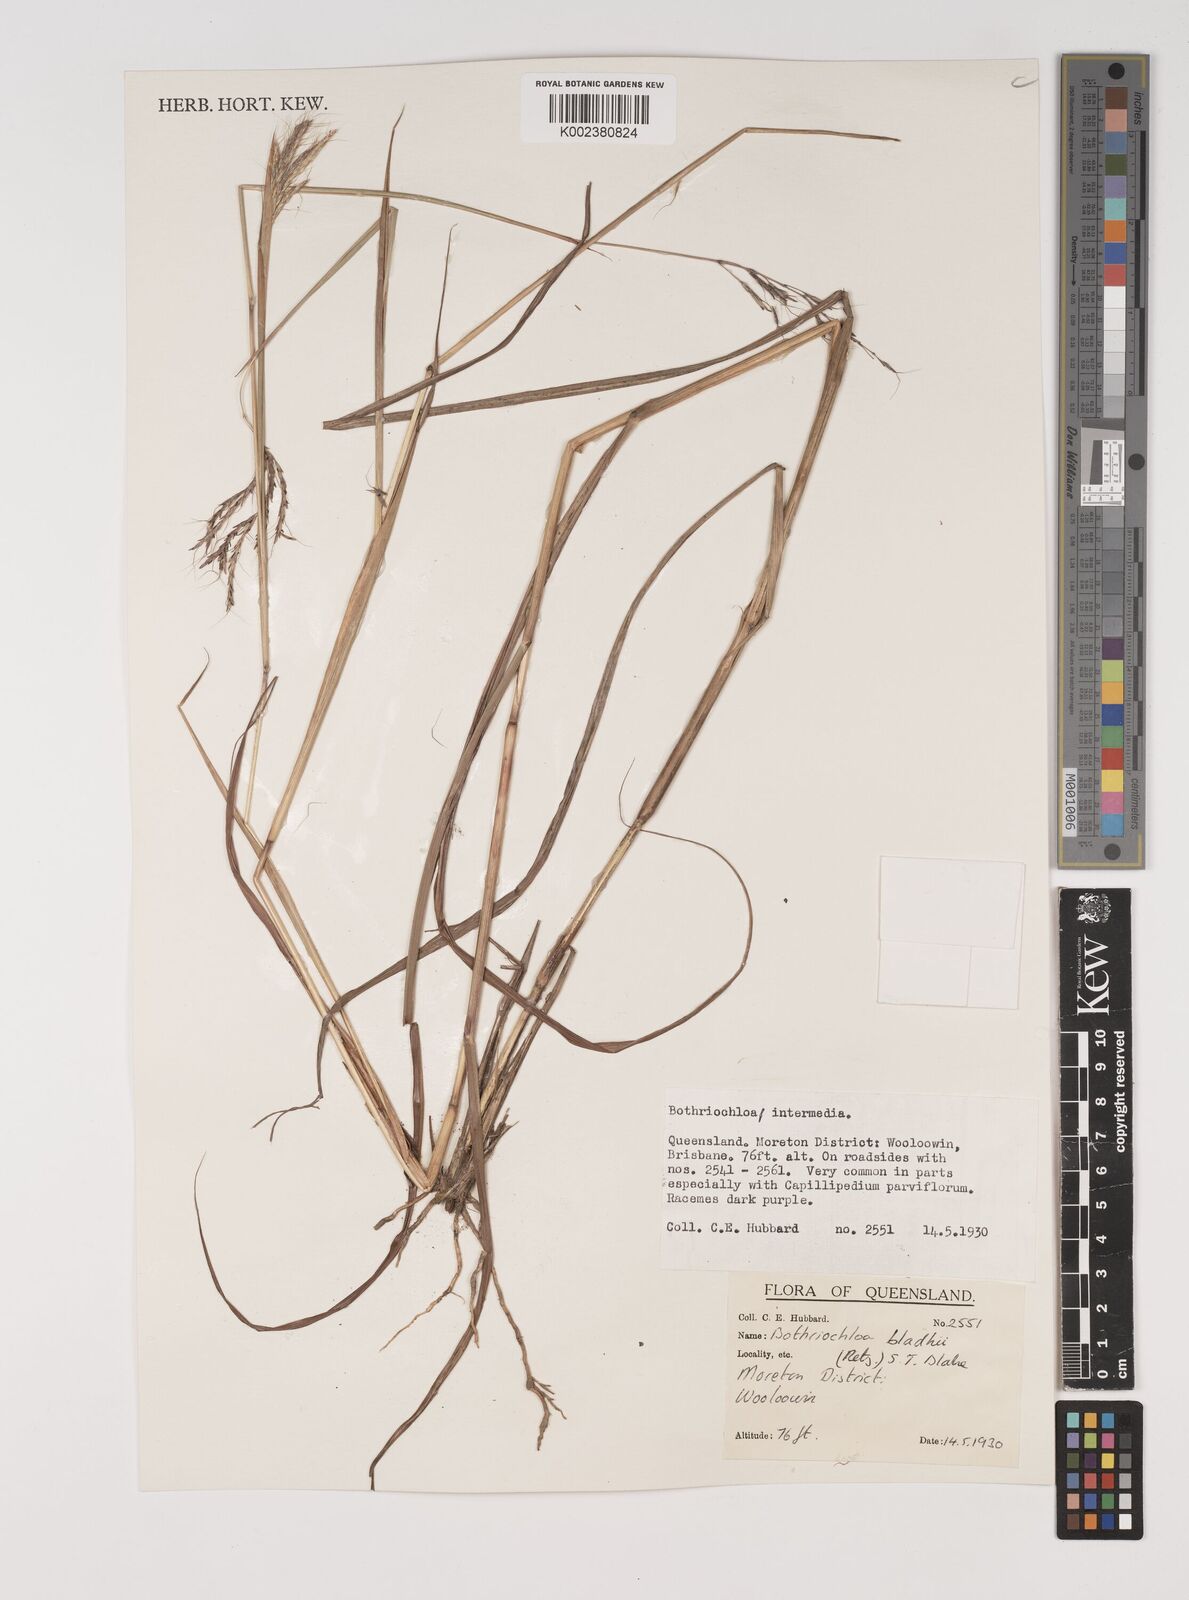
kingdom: Plantae
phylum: Tracheophyta
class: Liliopsida
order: Poales
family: Poaceae
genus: Bothriochloa
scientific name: Bothriochloa bladhii
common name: Caucasian bluestem
